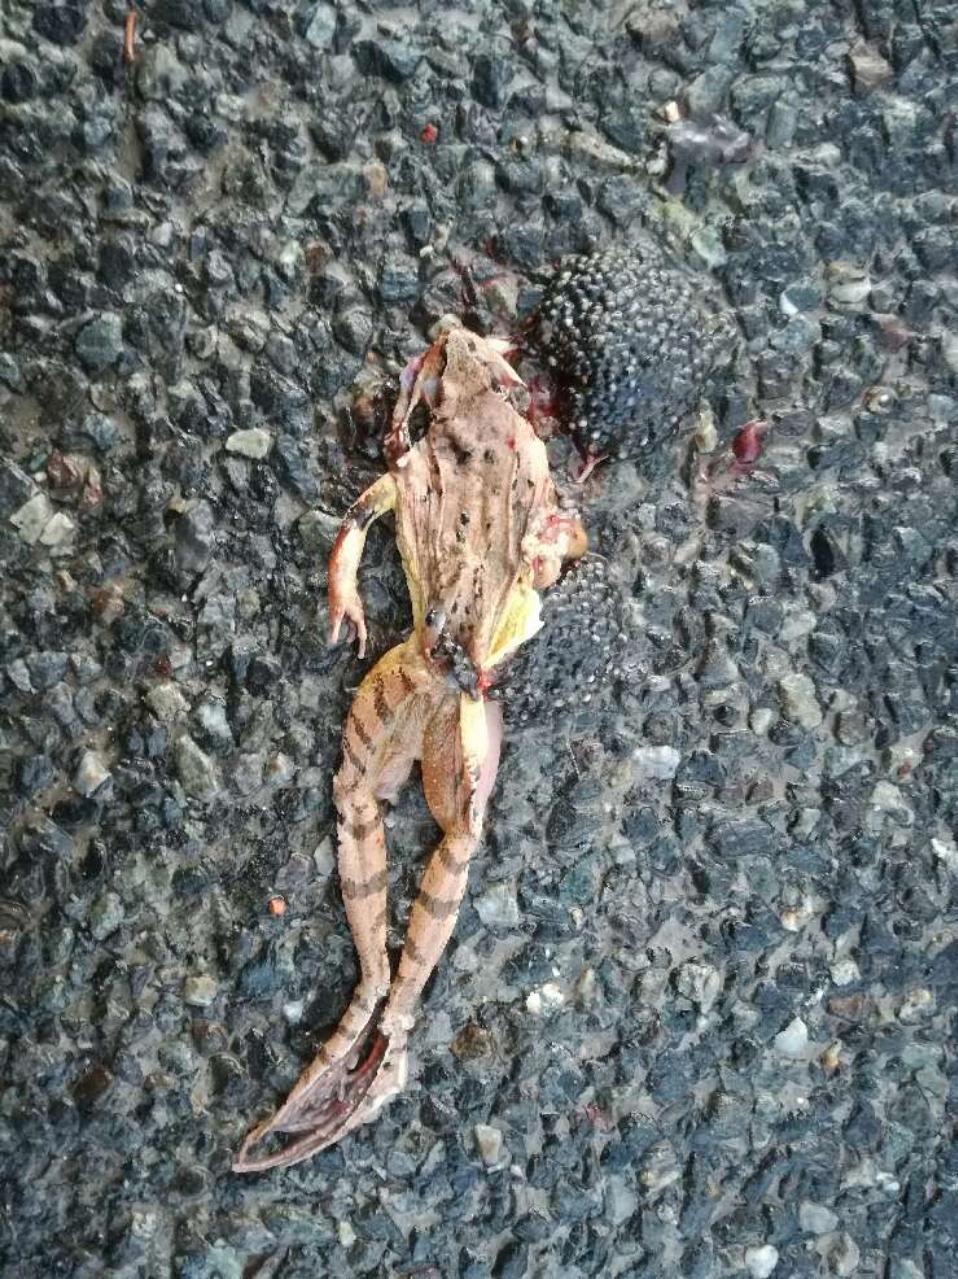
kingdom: Animalia
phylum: Chordata
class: Amphibia
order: Anura
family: Ranidae
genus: Rana
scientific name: Rana dalmatina
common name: Agile frog
